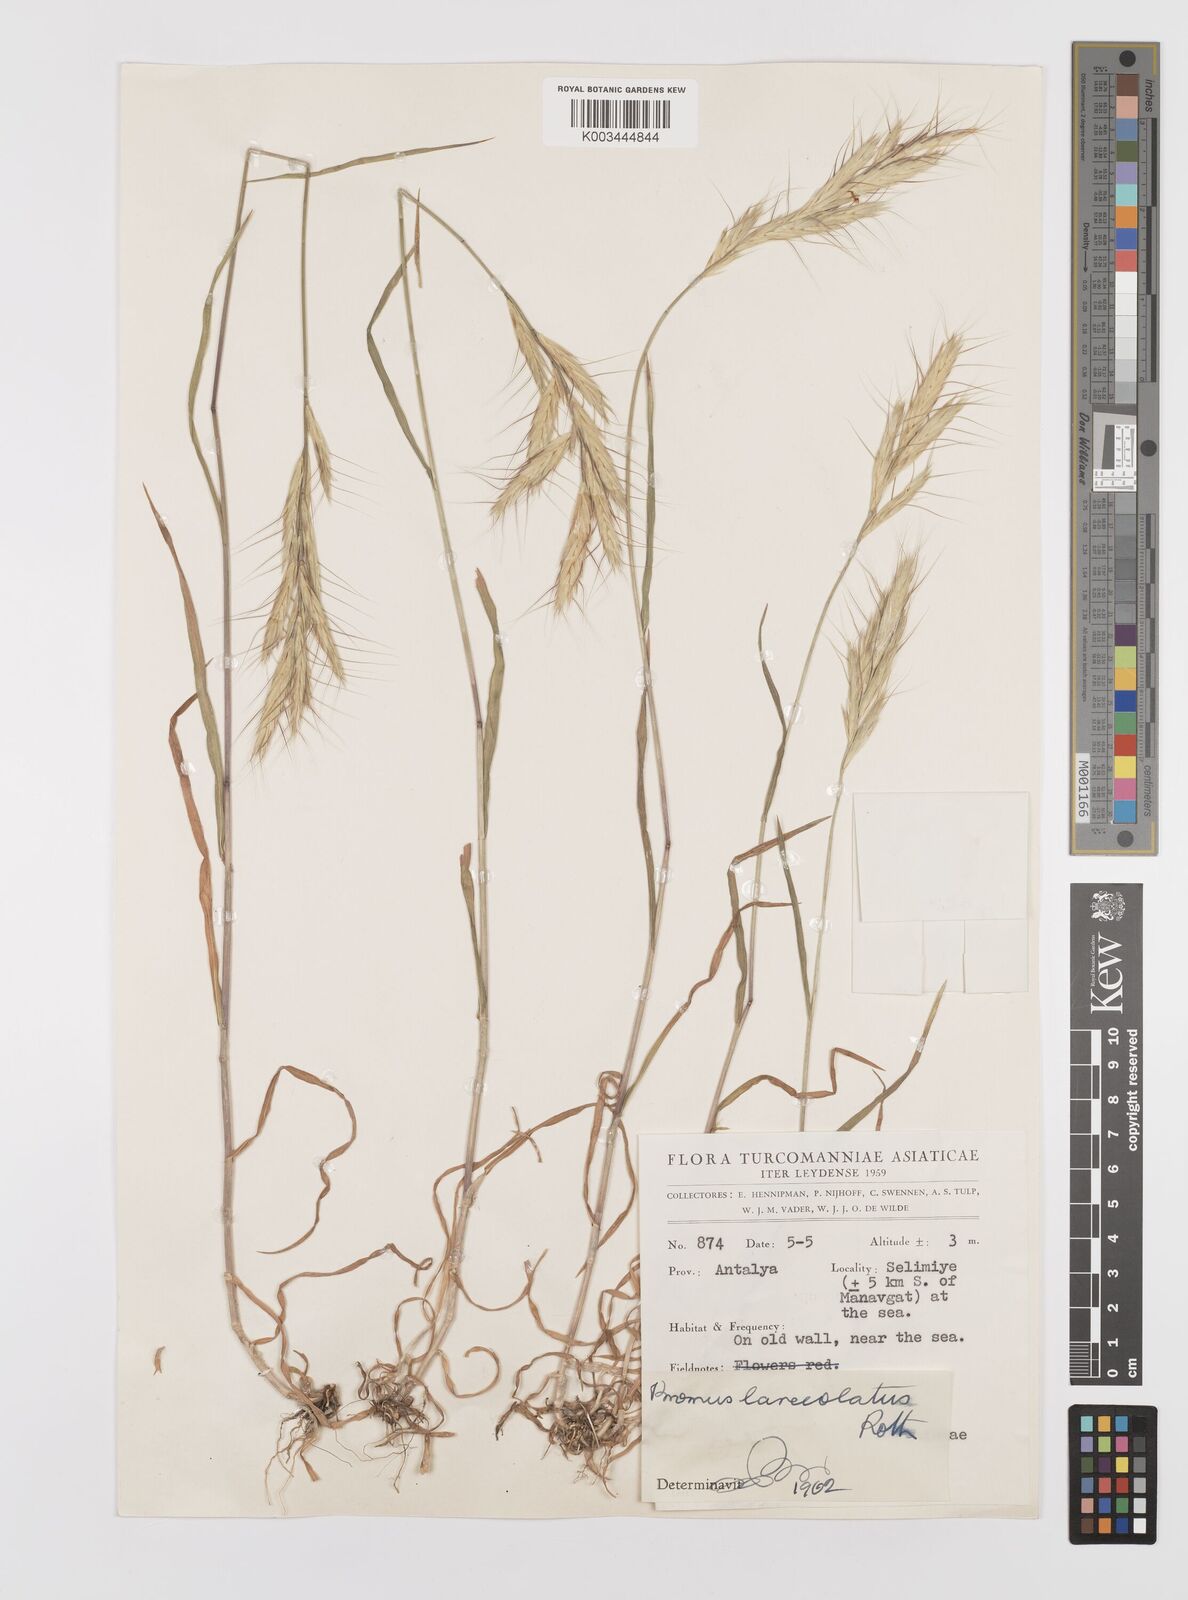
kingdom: Plantae
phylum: Tracheophyta
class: Liliopsida
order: Poales
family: Poaceae
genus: Bromus
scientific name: Bromus lanceolatus
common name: Mediterranean brome
